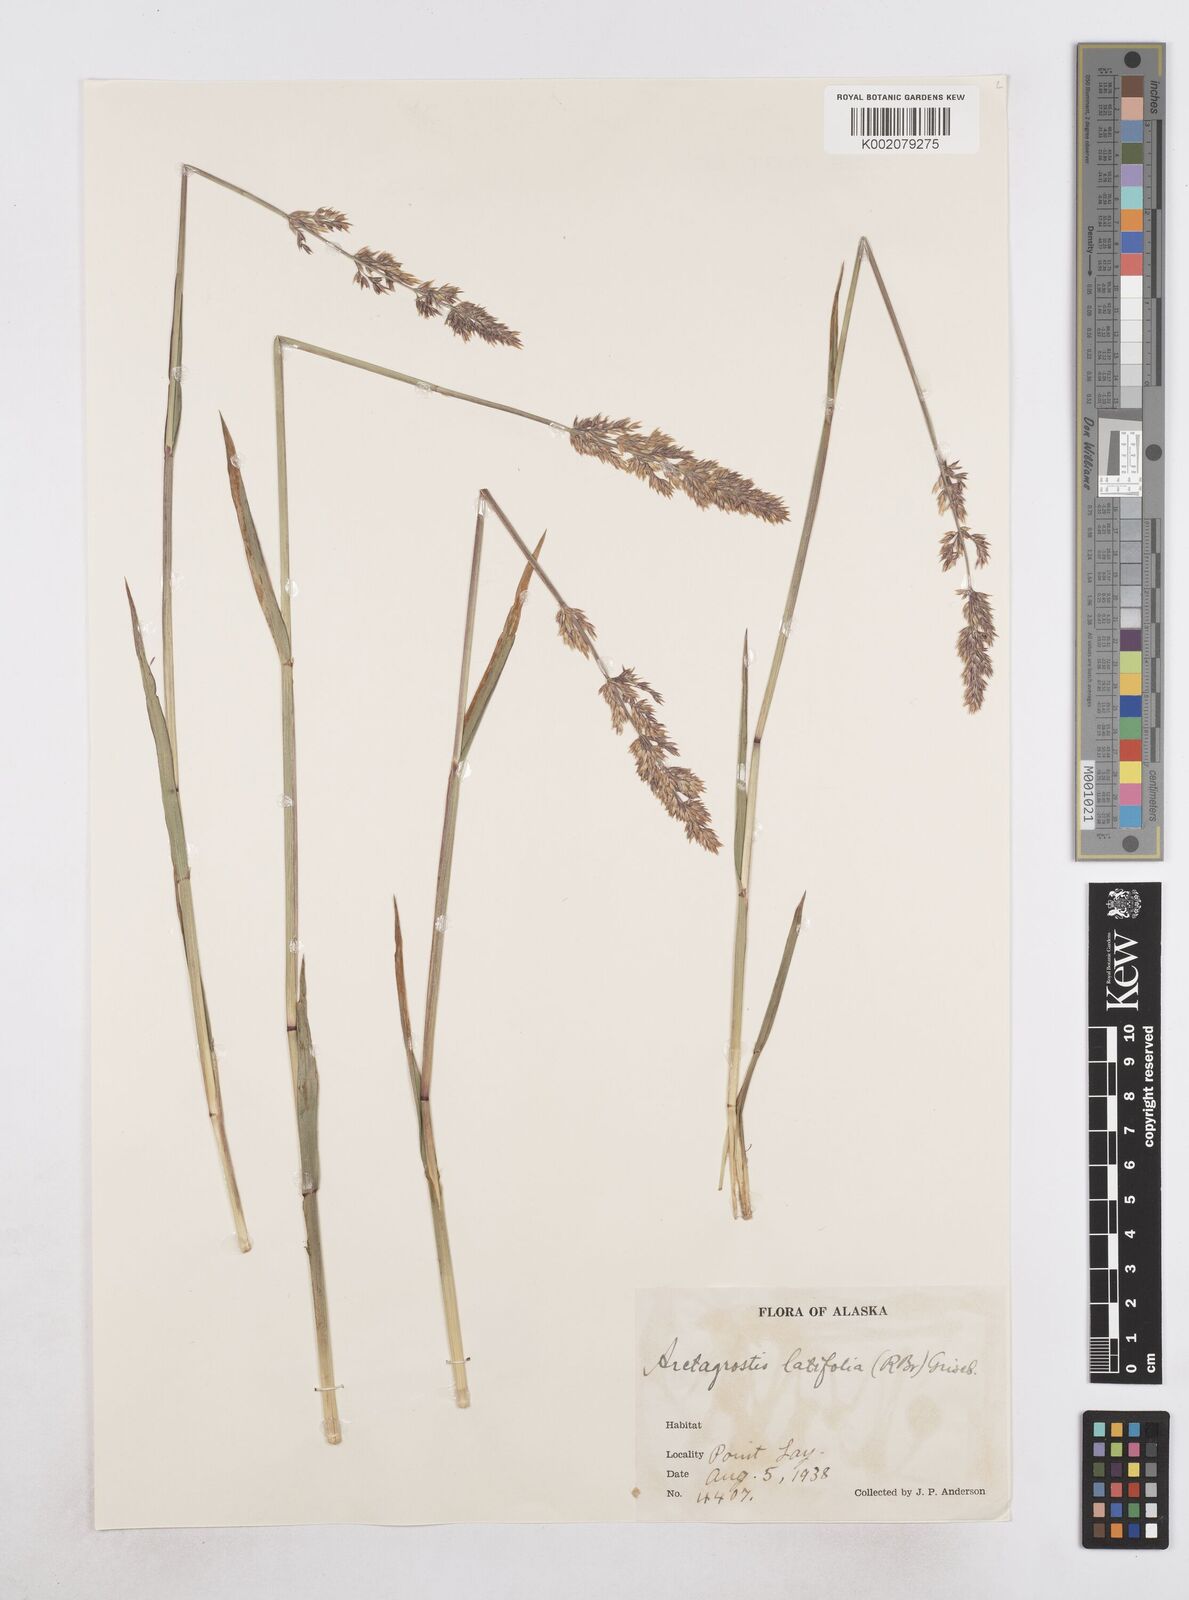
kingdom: Plantae
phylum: Tracheophyta
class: Liliopsida
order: Poales
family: Poaceae
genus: Arctagrostis
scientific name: Arctagrostis latifolia
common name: Arctic grass
